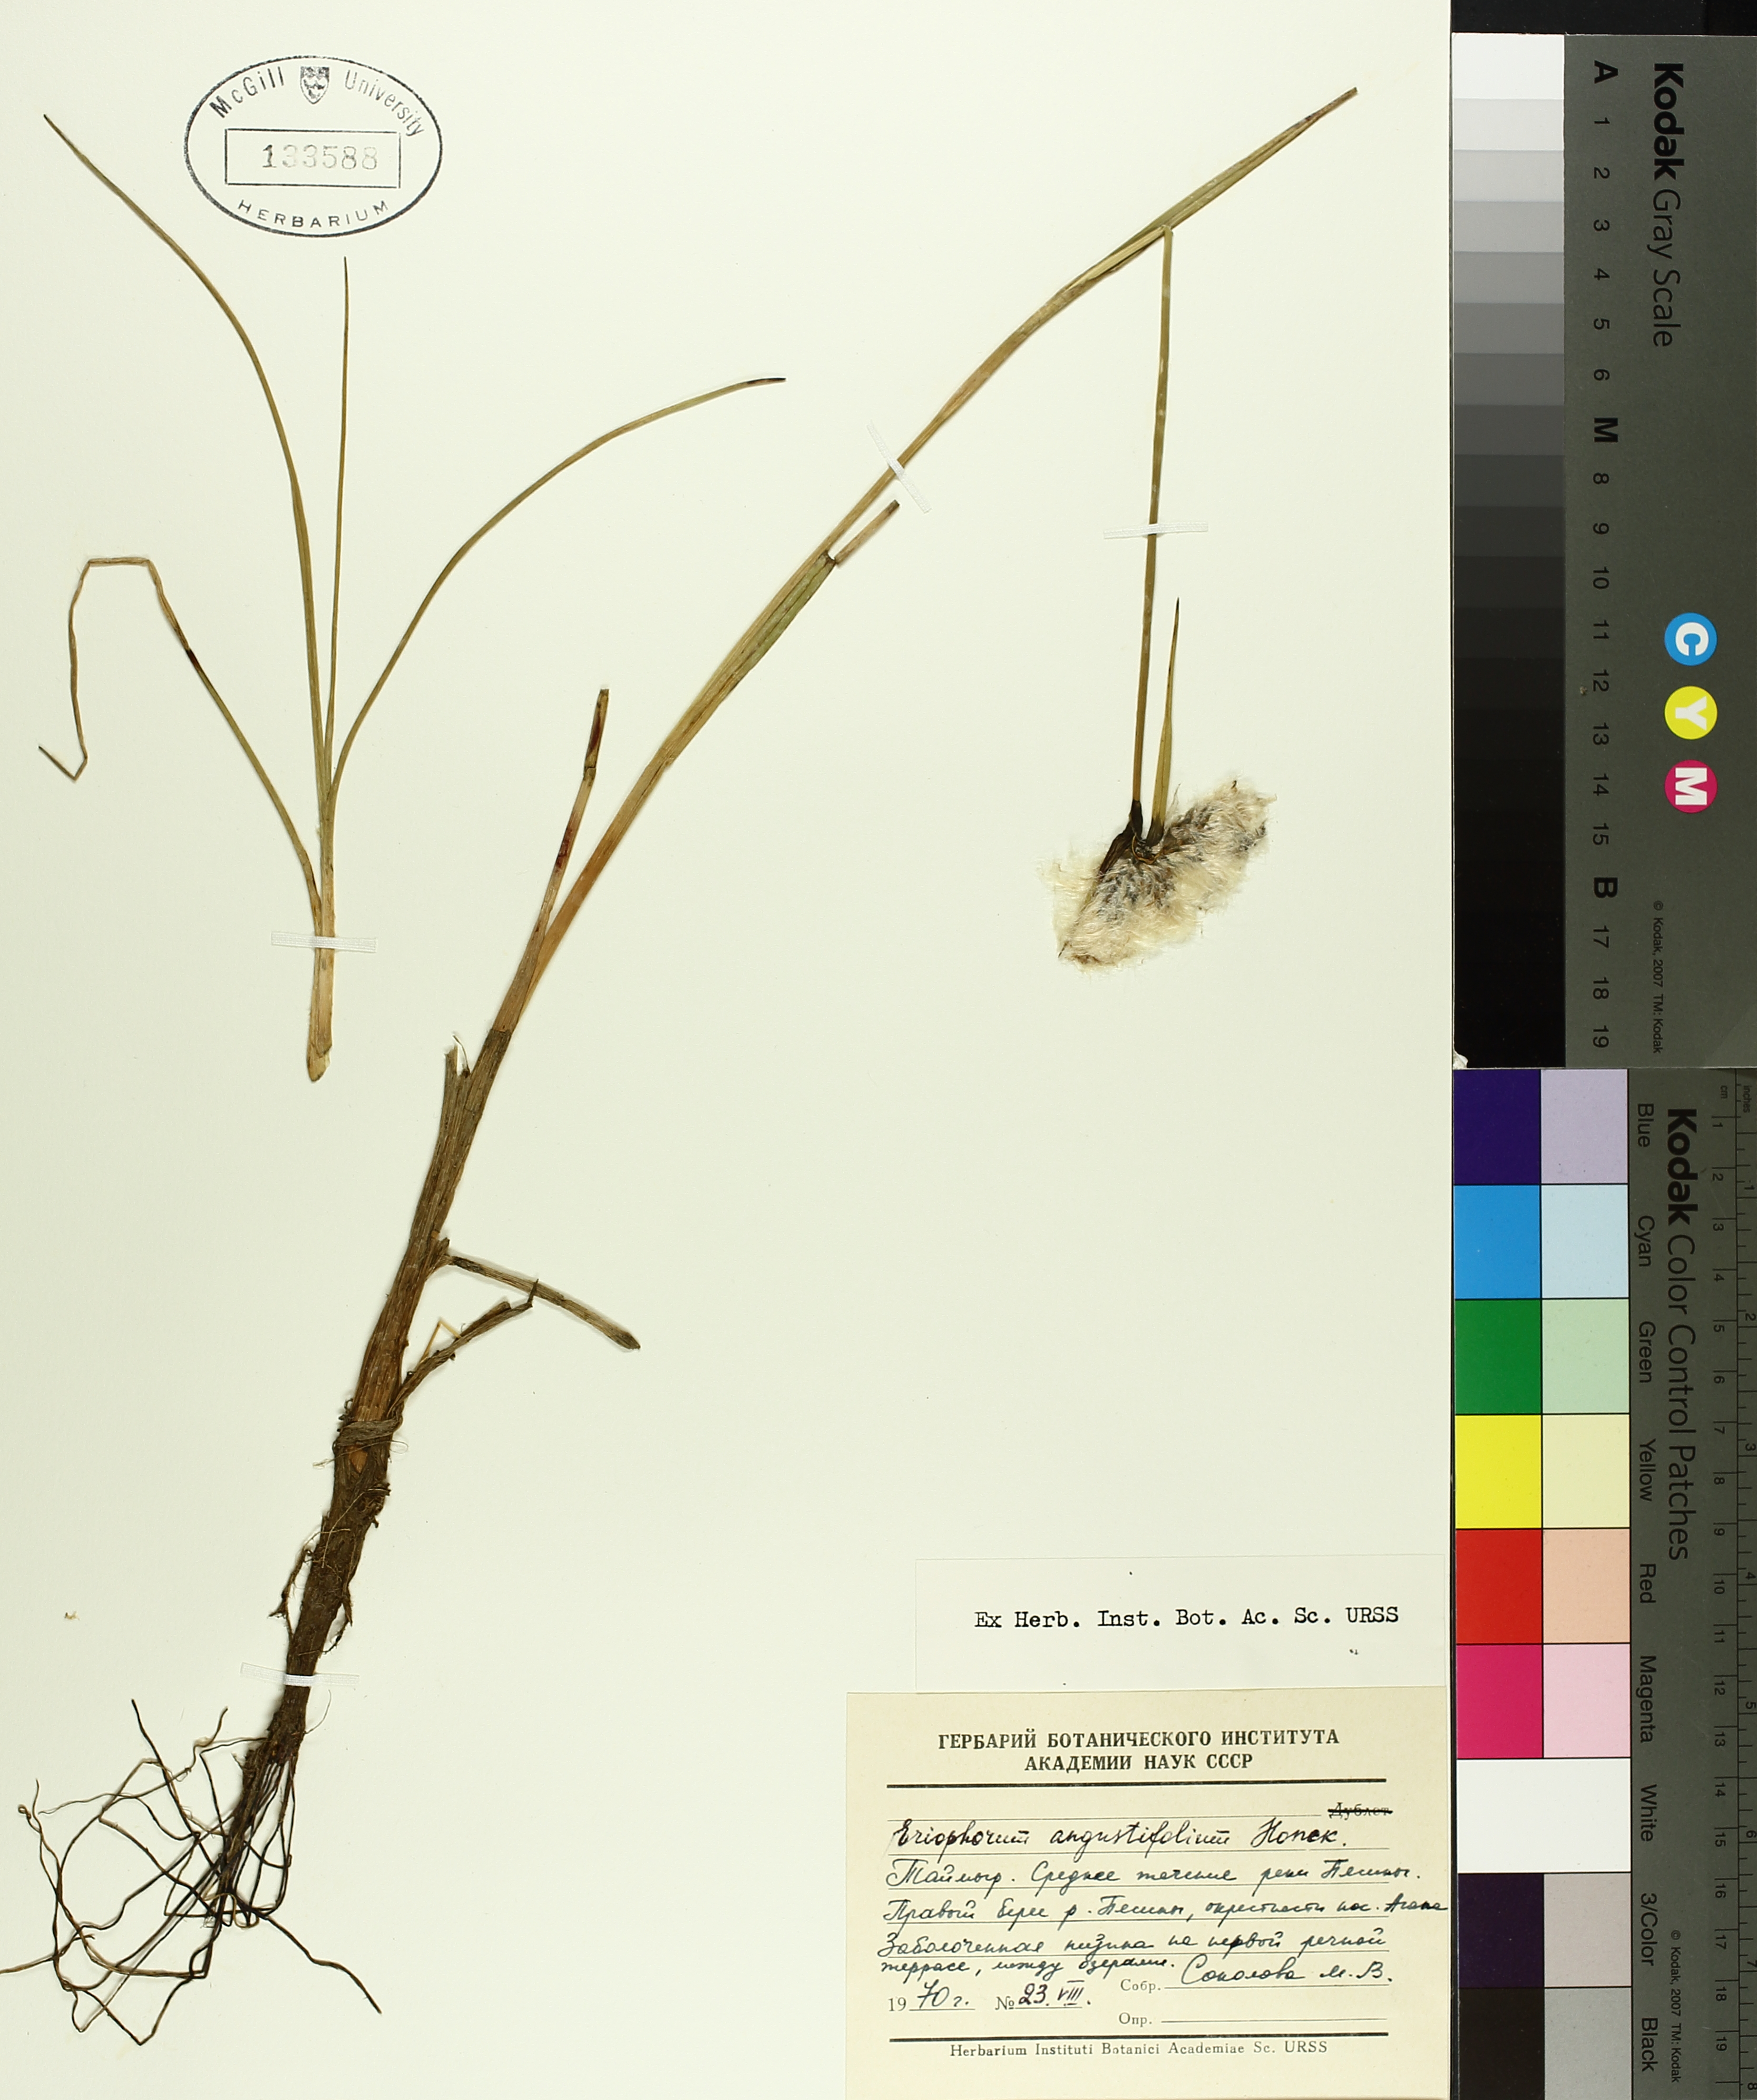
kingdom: Plantae
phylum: Tracheophyta
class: Liliopsida
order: Poales
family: Cyperaceae
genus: Eriophorum
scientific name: Eriophorum triste
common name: Tall cottongrass
